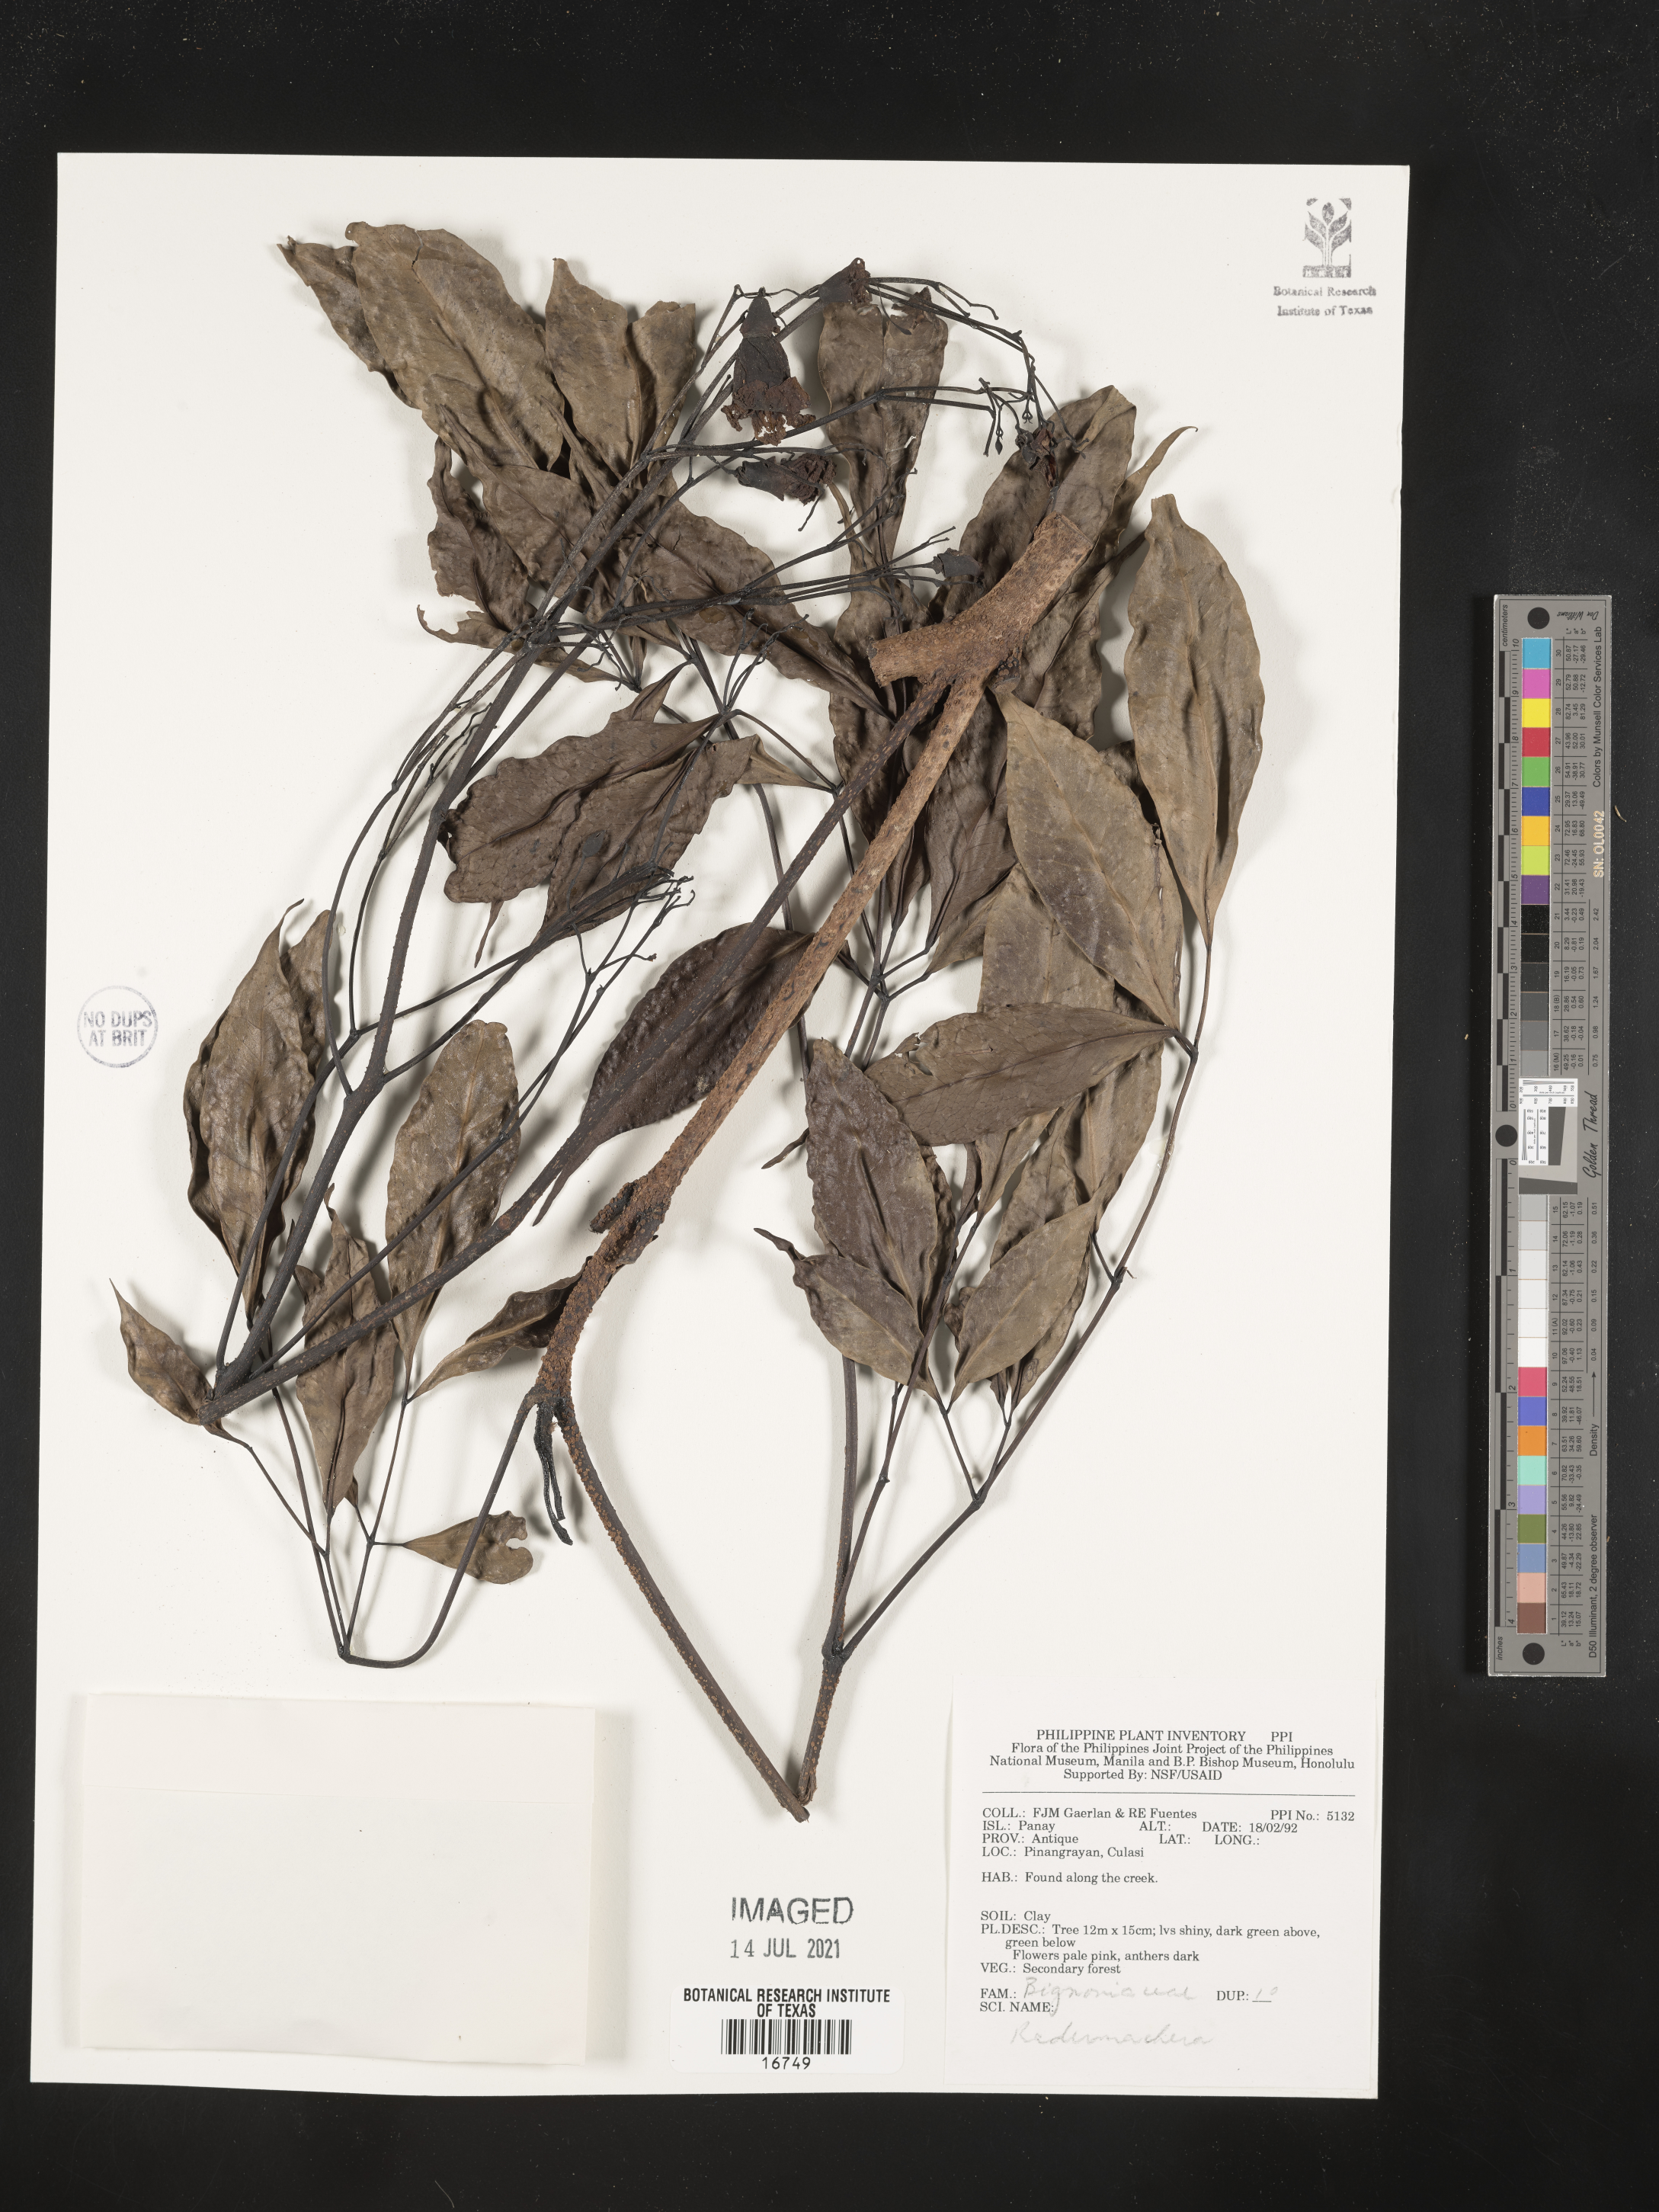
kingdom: Plantae
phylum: Tracheophyta
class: Magnoliopsida
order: Lamiales
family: Bignoniaceae
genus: Radermachera
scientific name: Radermachera
